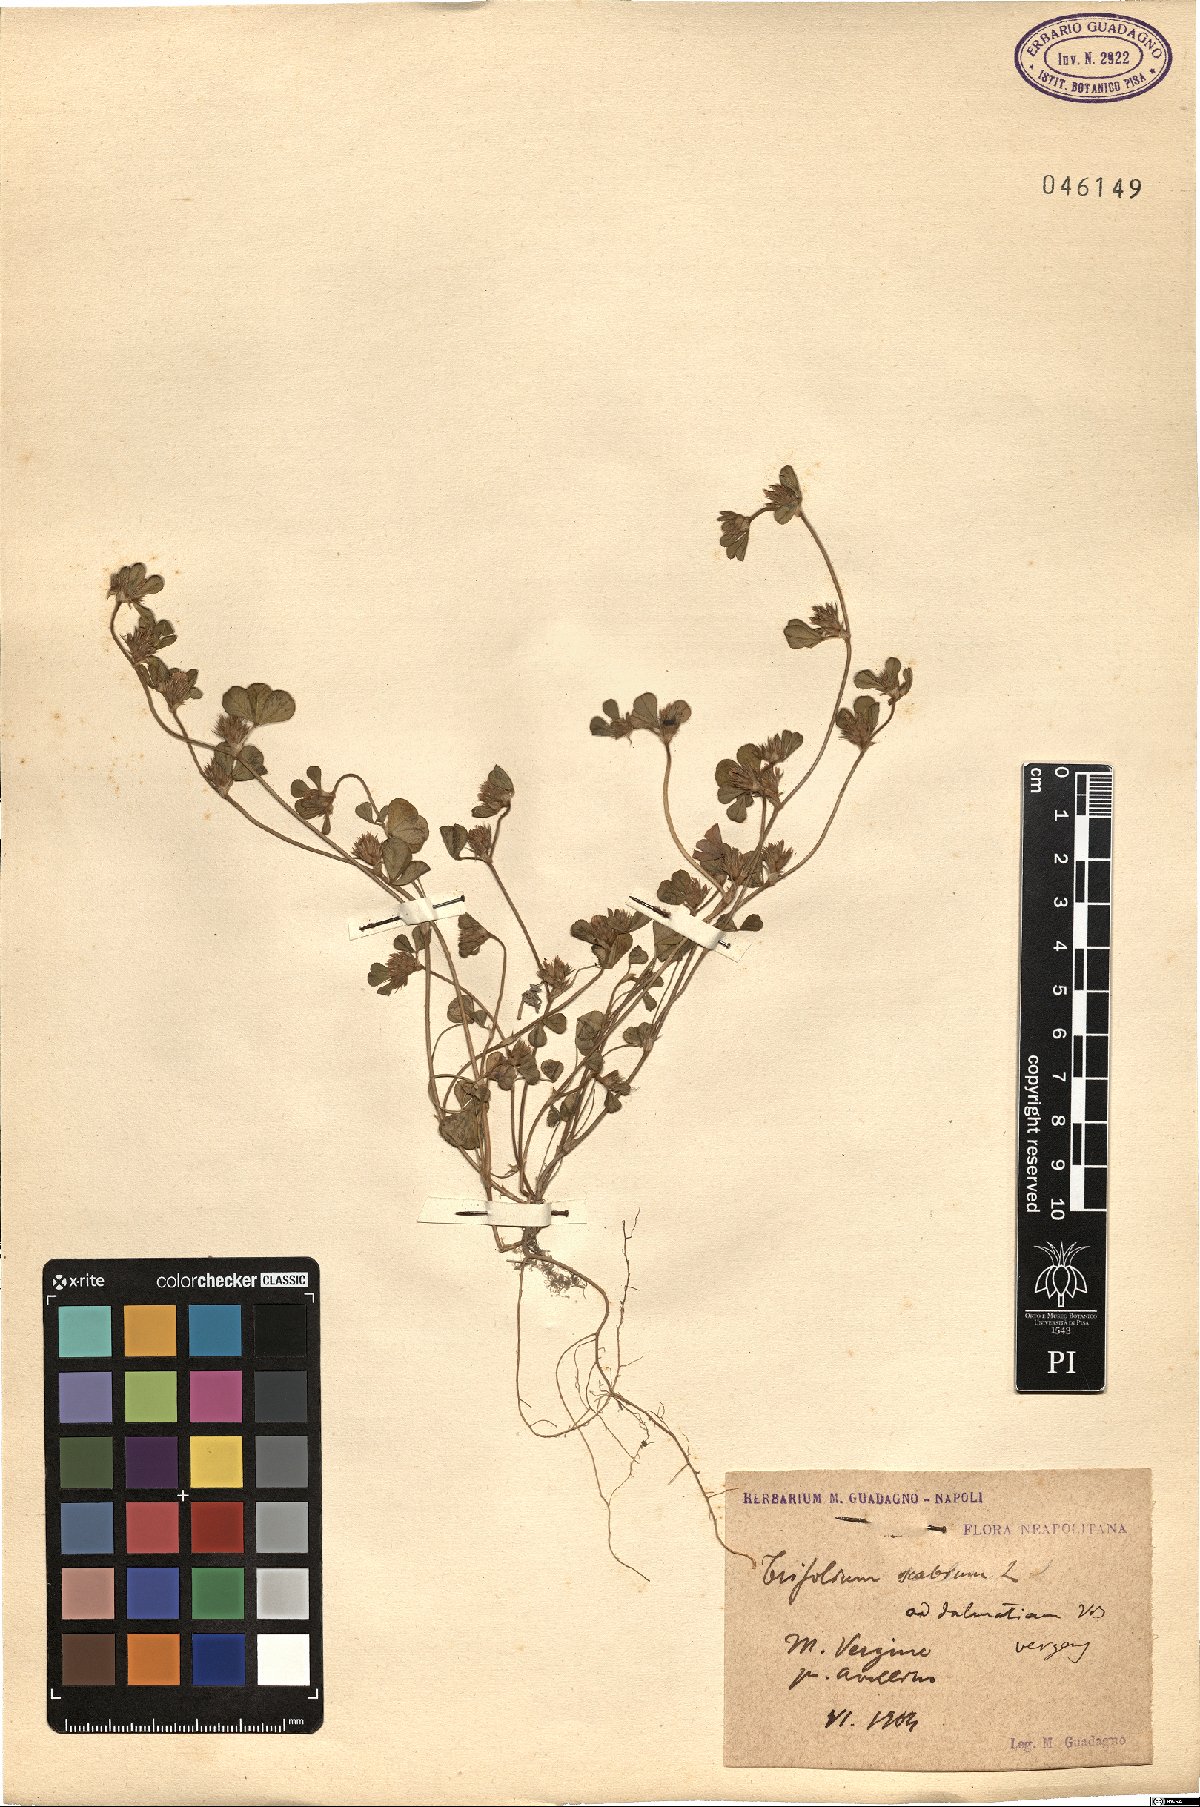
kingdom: Plantae
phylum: Tracheophyta
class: Magnoliopsida
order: Fabales
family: Fabaceae
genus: Trifolium
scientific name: Trifolium scabrum
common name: Rough clover
